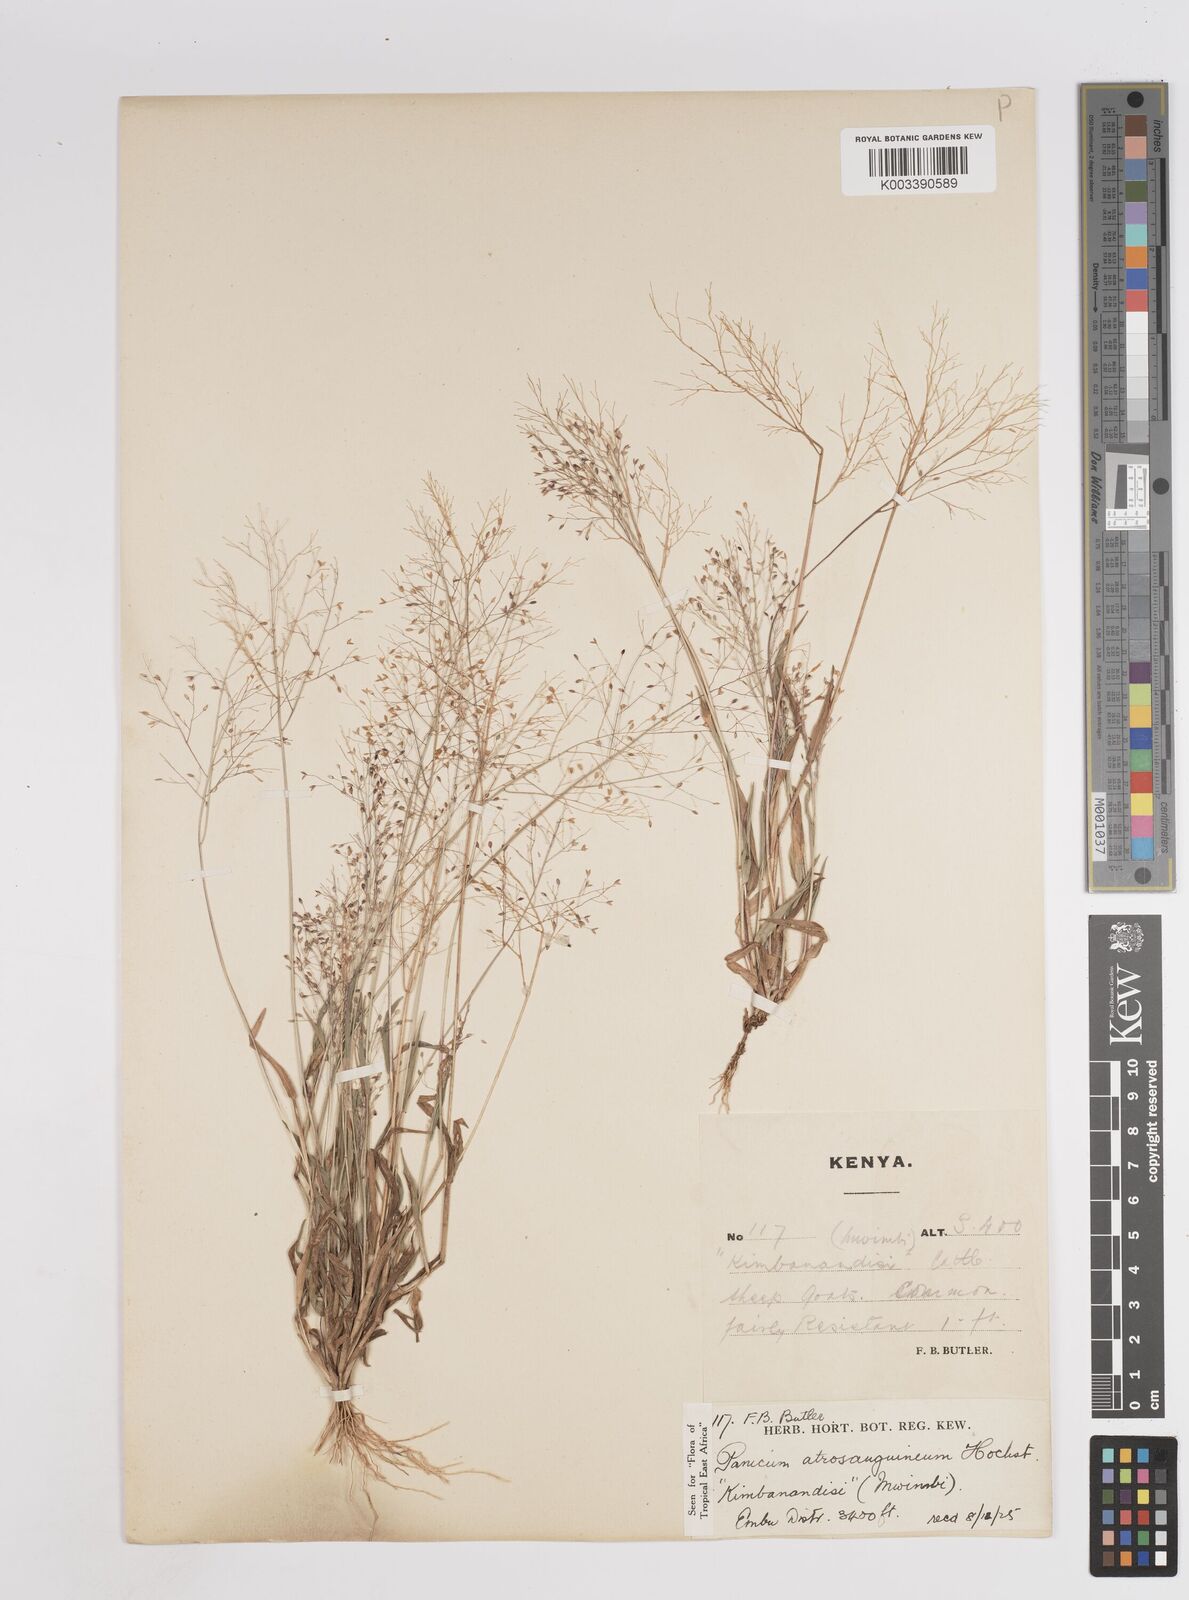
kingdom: Plantae
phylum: Tracheophyta
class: Liliopsida
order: Poales
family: Poaceae
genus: Panicum
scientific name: Panicum atrosanguineum
